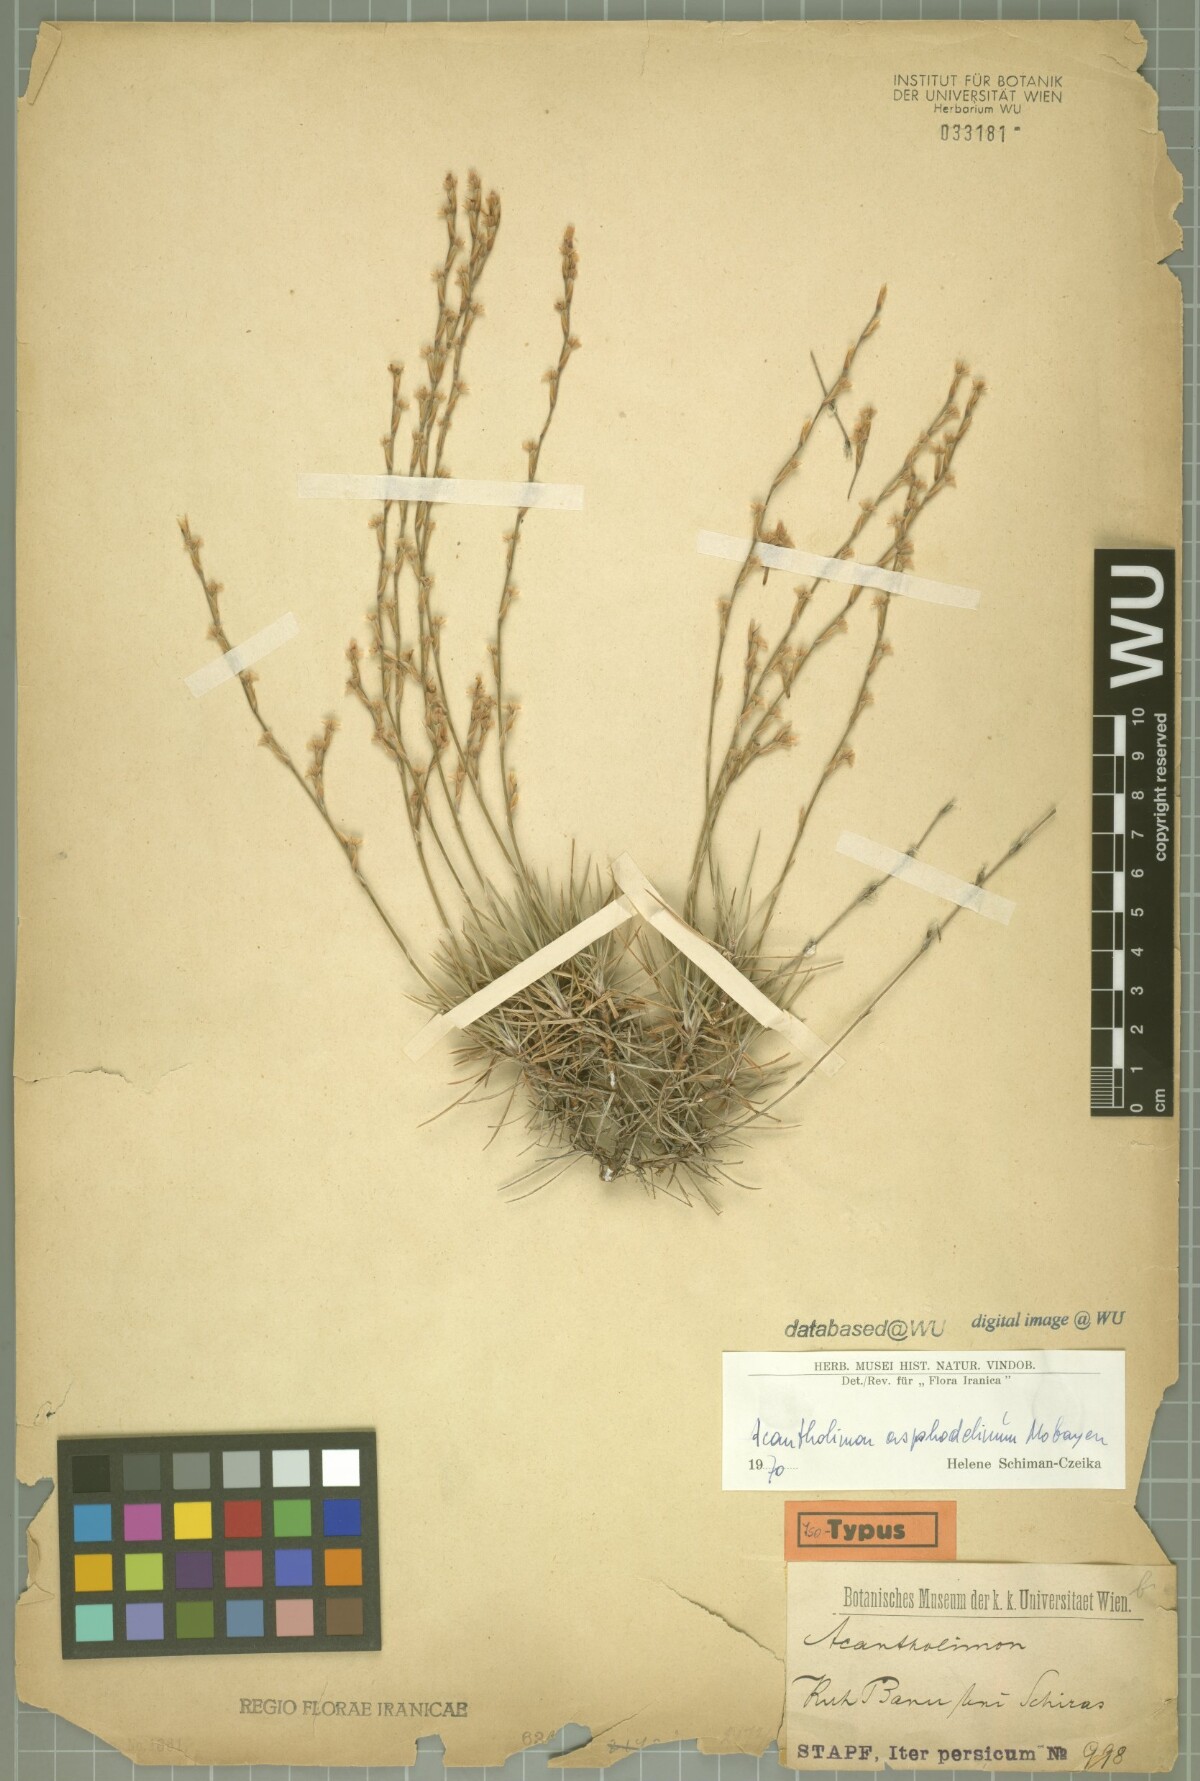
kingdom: Plantae
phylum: Tracheophyta
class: Magnoliopsida
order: Caryophyllales
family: Plumbaginaceae
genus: Acantholimon
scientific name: Acantholimon asphodelinum
